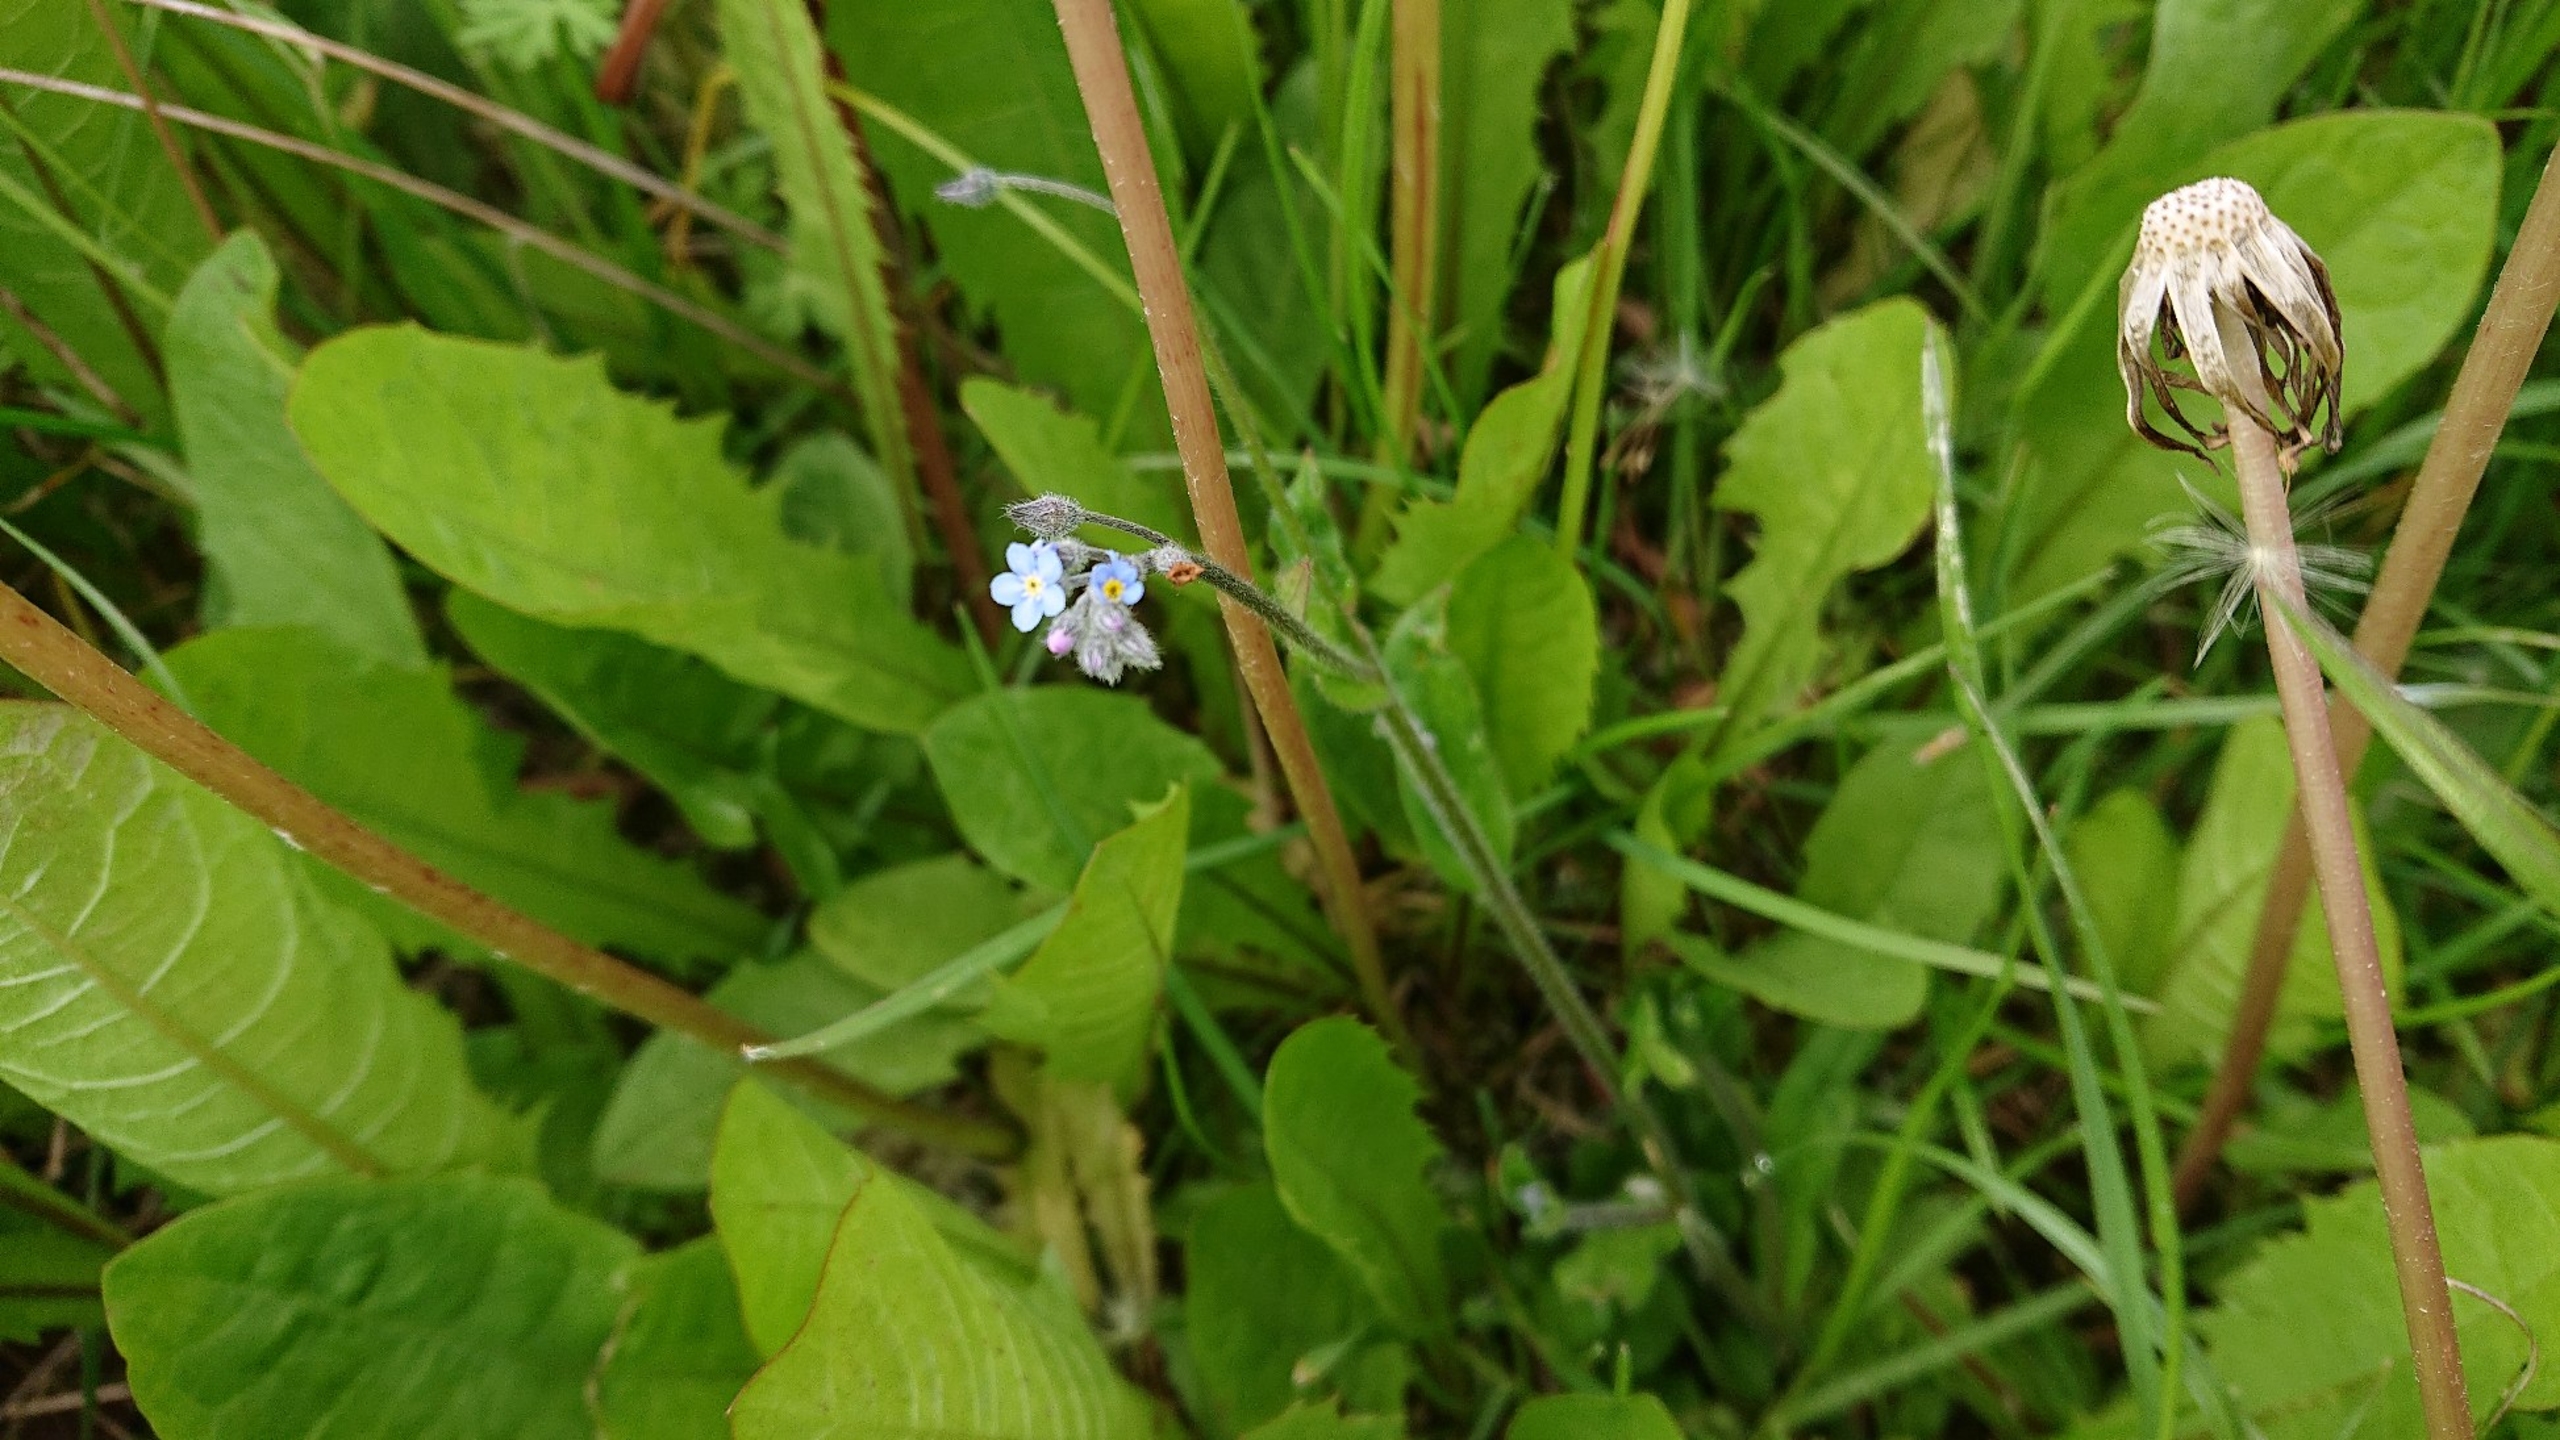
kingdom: Plantae
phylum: Tracheophyta
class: Magnoliopsida
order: Boraginales
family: Boraginaceae
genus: Myosotis
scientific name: Myosotis arvensis
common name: Mark-forglemmigej
